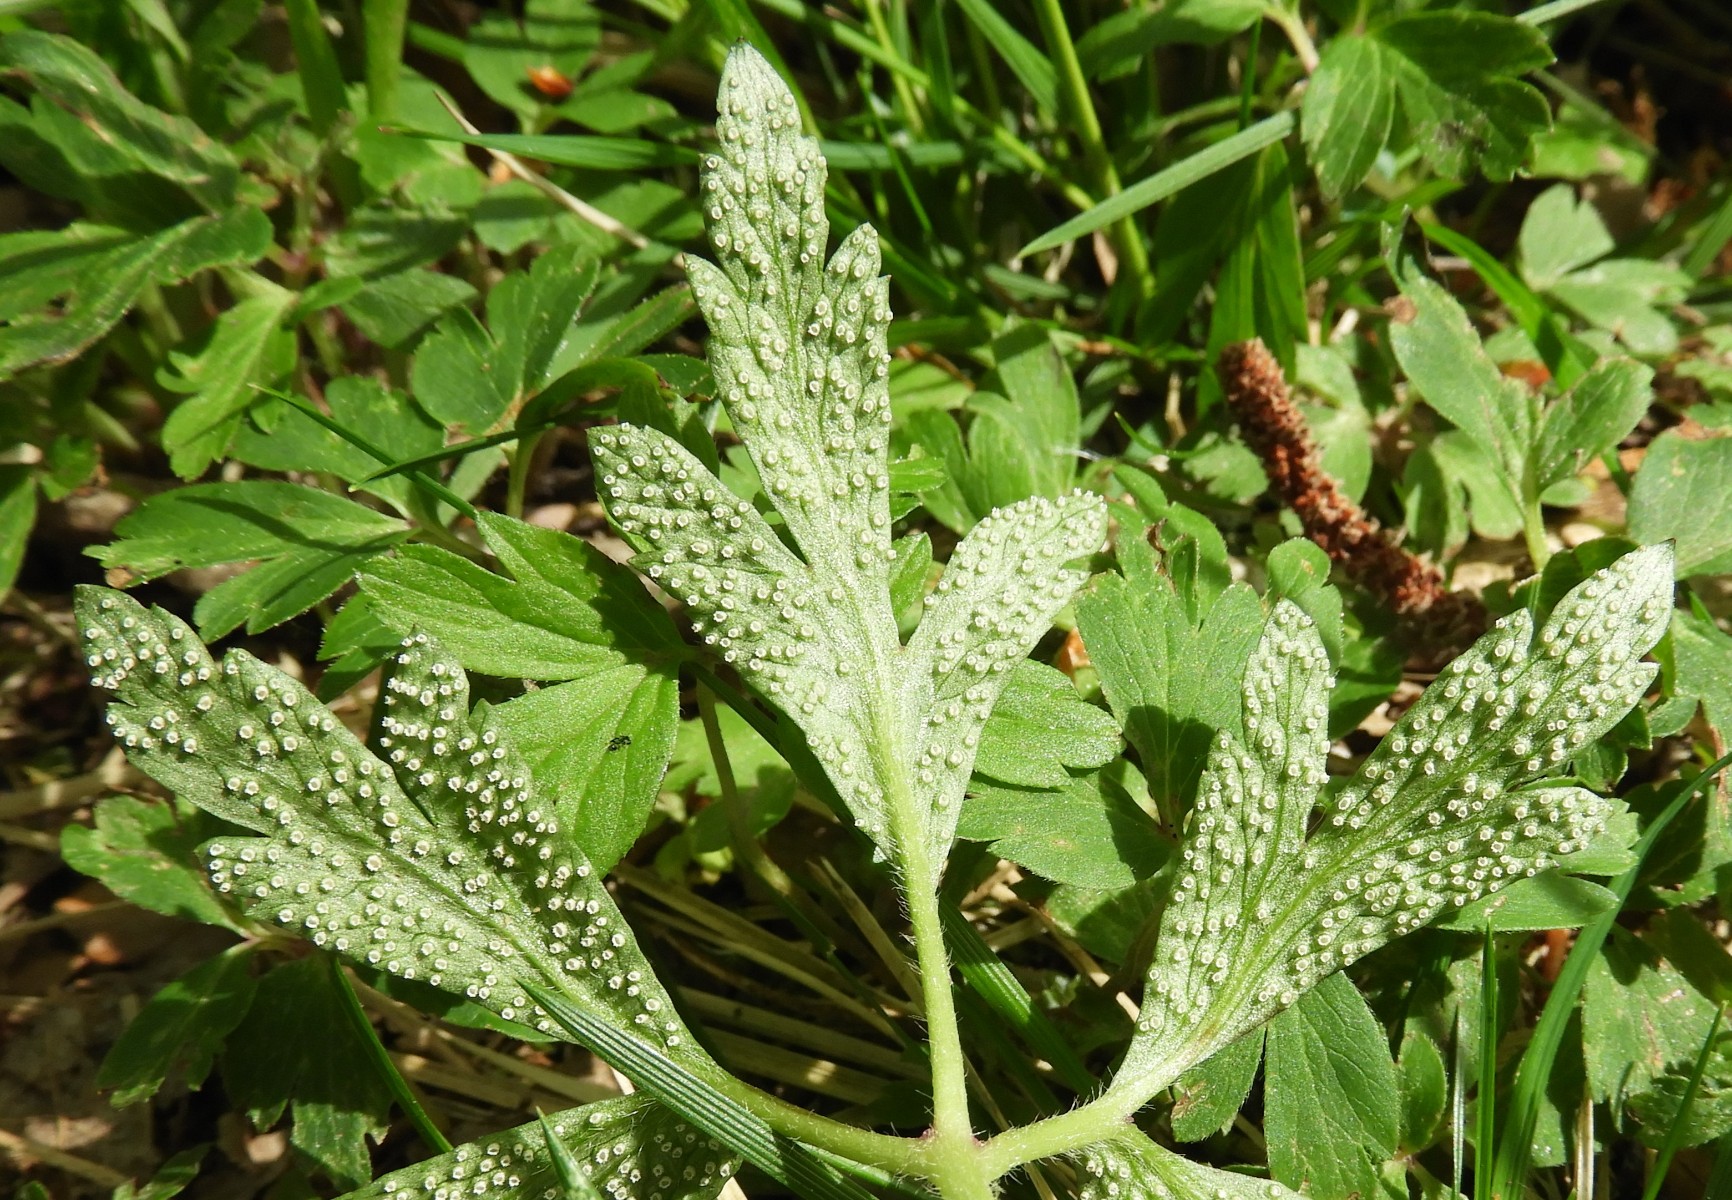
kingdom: Fungi
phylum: Basidiomycota
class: Pucciniomycetes
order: Pucciniales
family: Ochropsoraceae
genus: Ochropsora
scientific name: Ochropsora ariae
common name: anemone-okkerpletrust
